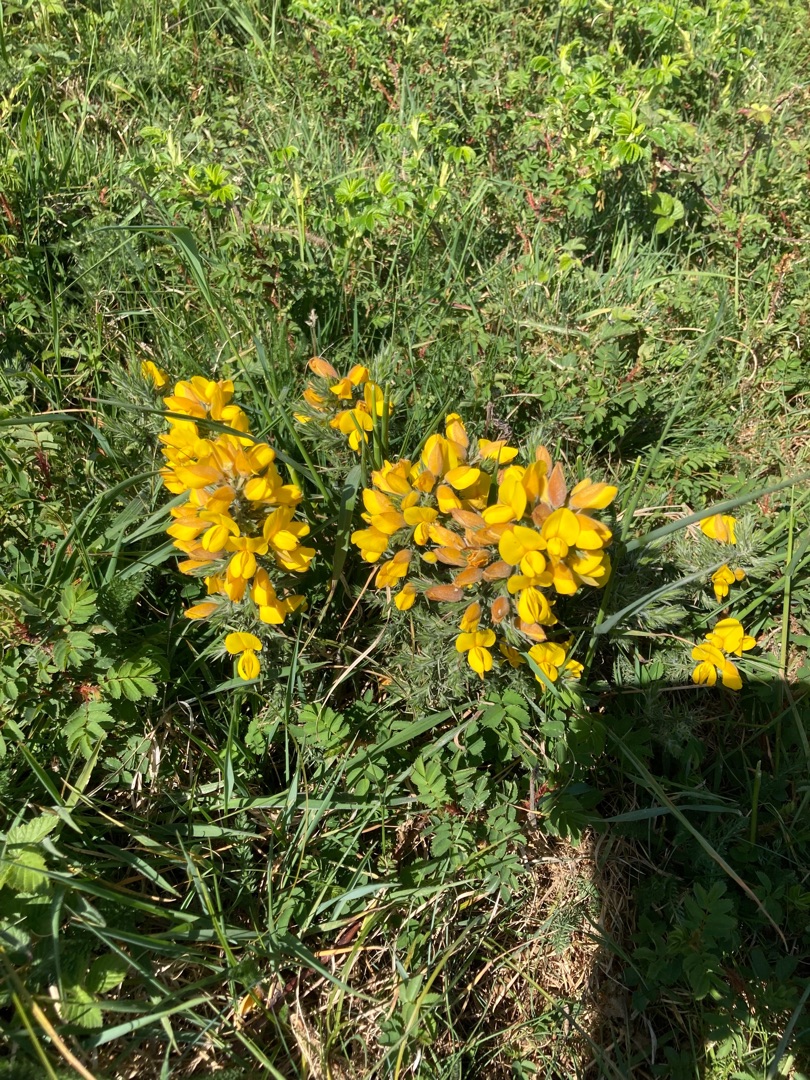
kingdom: Plantae
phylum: Tracheophyta
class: Magnoliopsida
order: Fabales
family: Fabaceae
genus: Ulex
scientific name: Ulex europaeus
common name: Tornblad
